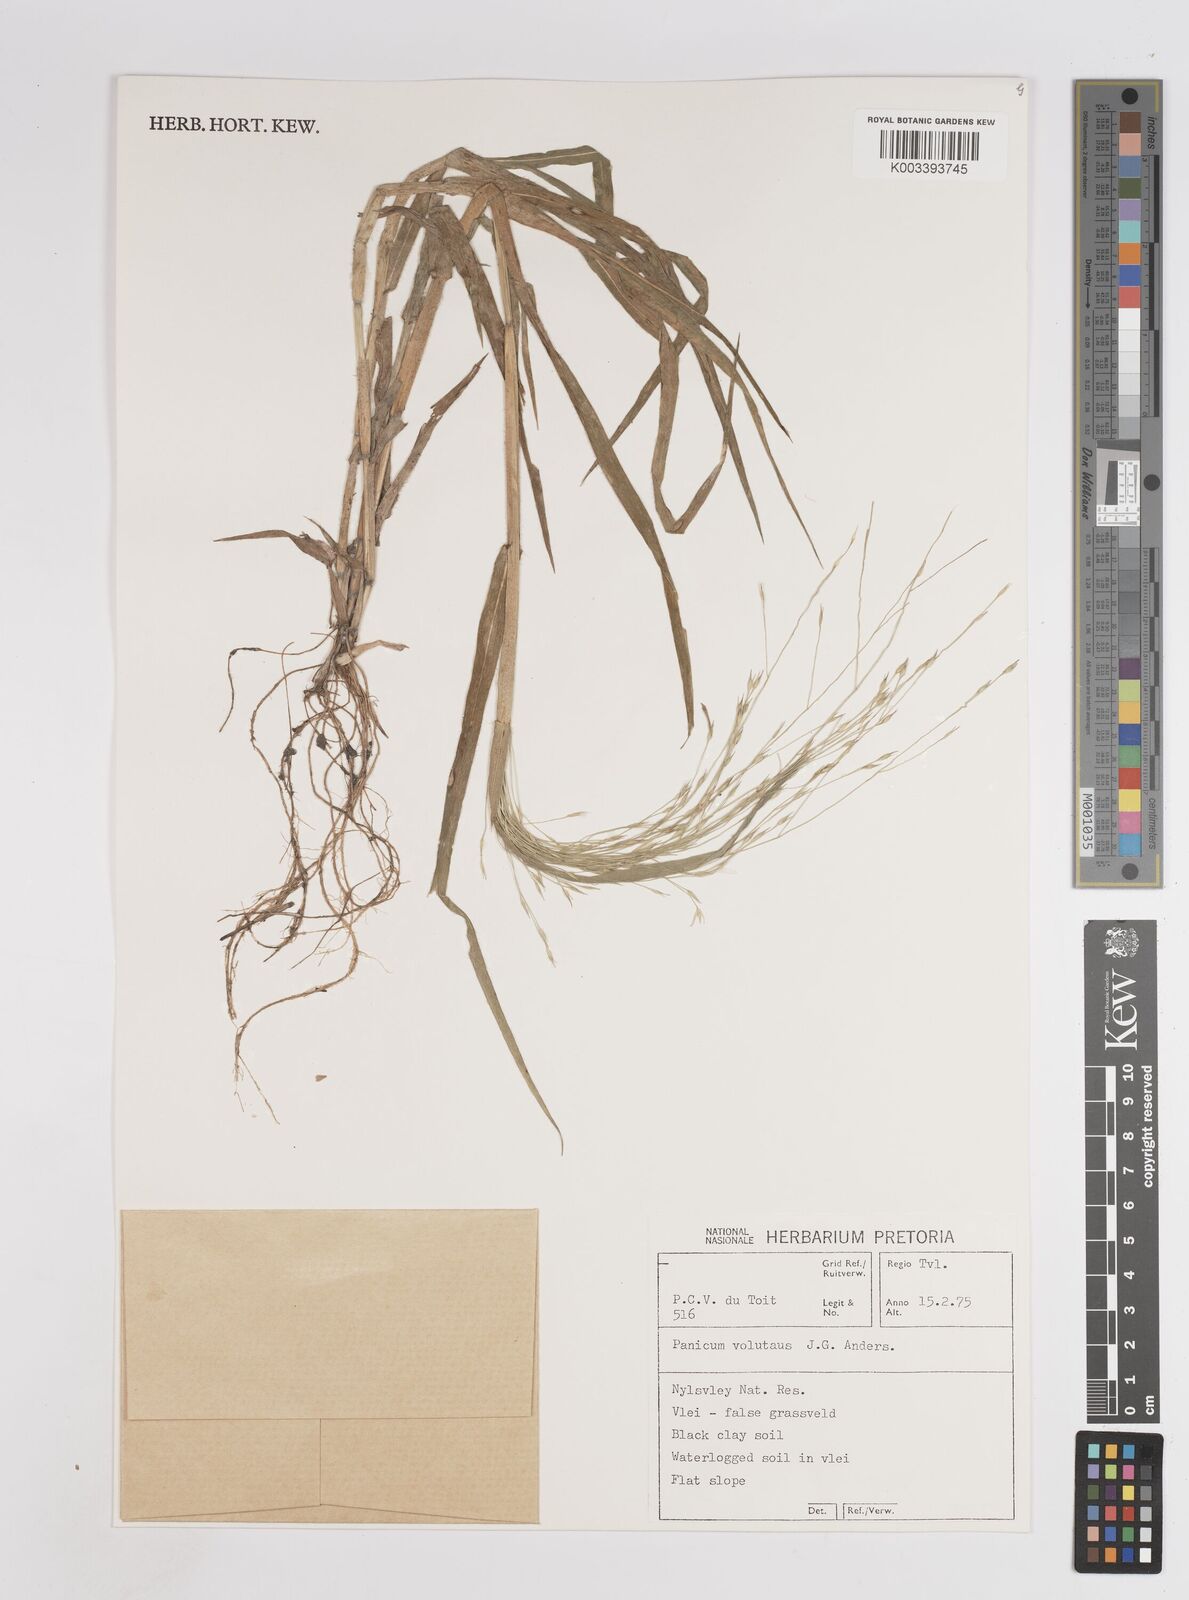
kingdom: Plantae
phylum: Tracheophyta
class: Liliopsida
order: Poales
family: Poaceae
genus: Panicum
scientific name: Panicum volutans
